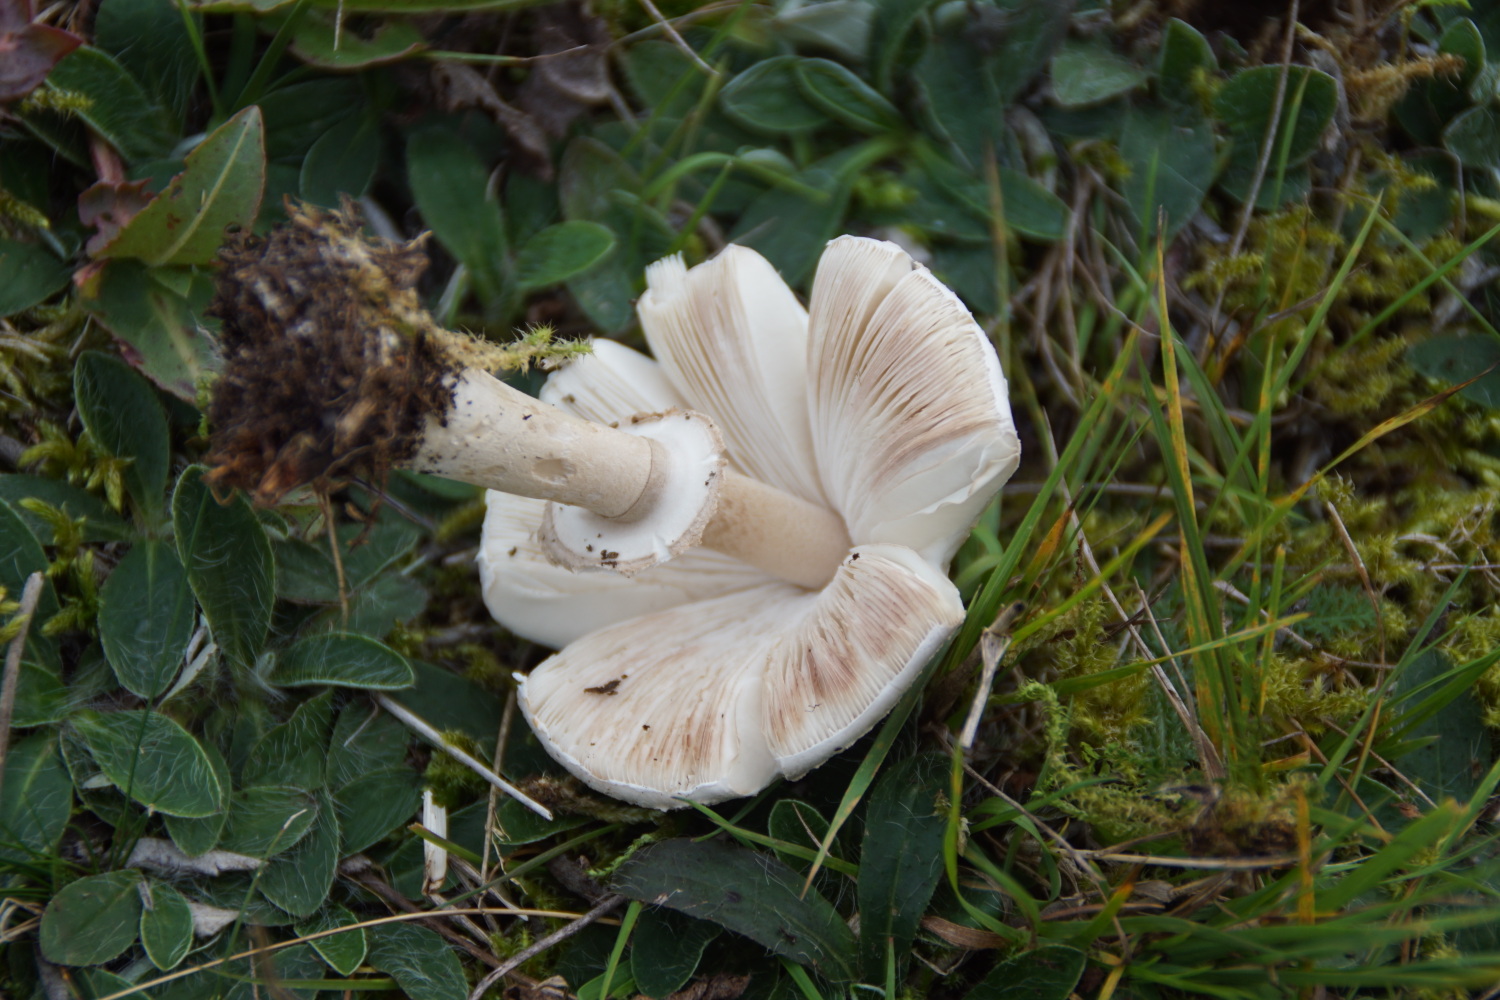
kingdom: Fungi
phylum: Basidiomycota
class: Agaricomycetes
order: Agaricales
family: Agaricaceae
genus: Macrolepiota
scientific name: Macrolepiota excoriata
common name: mark-kæmpeparasolhat
